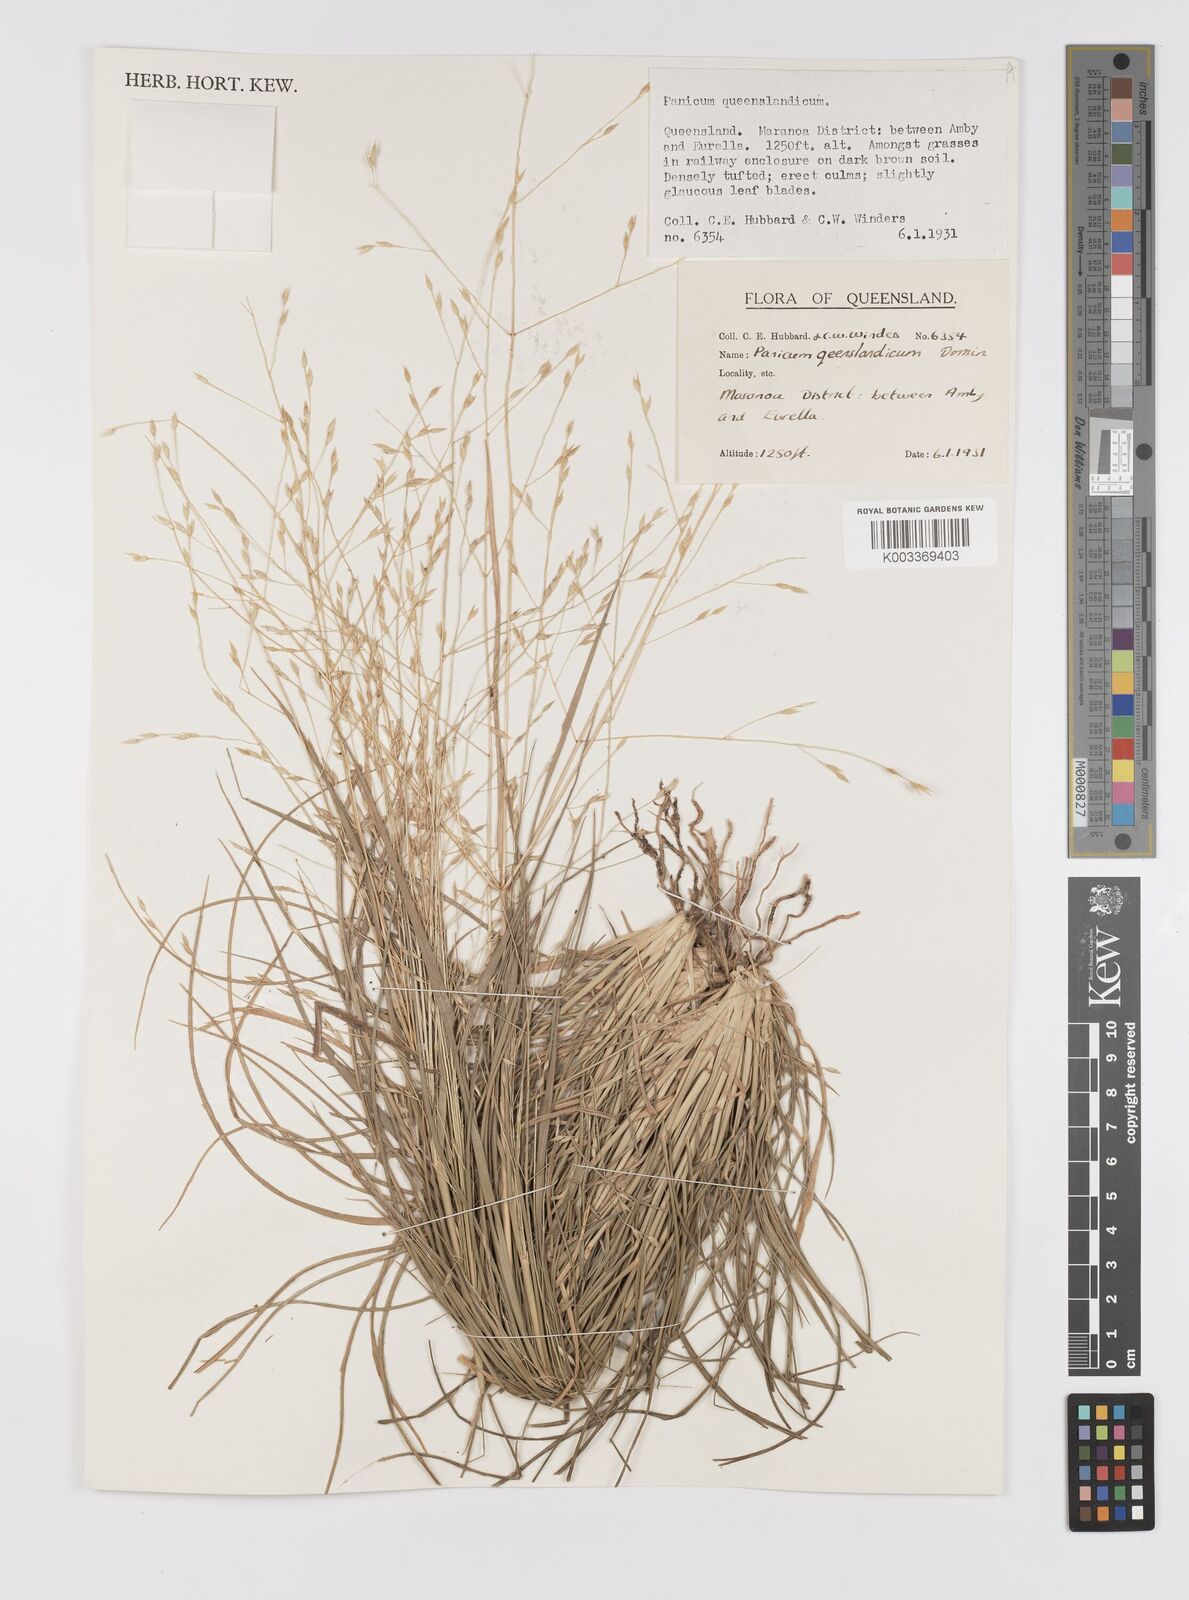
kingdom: Plantae
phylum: Tracheophyta
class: Liliopsida
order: Poales
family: Poaceae
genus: Panicum
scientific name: Panicum queenslandicum
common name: Yabila grass
